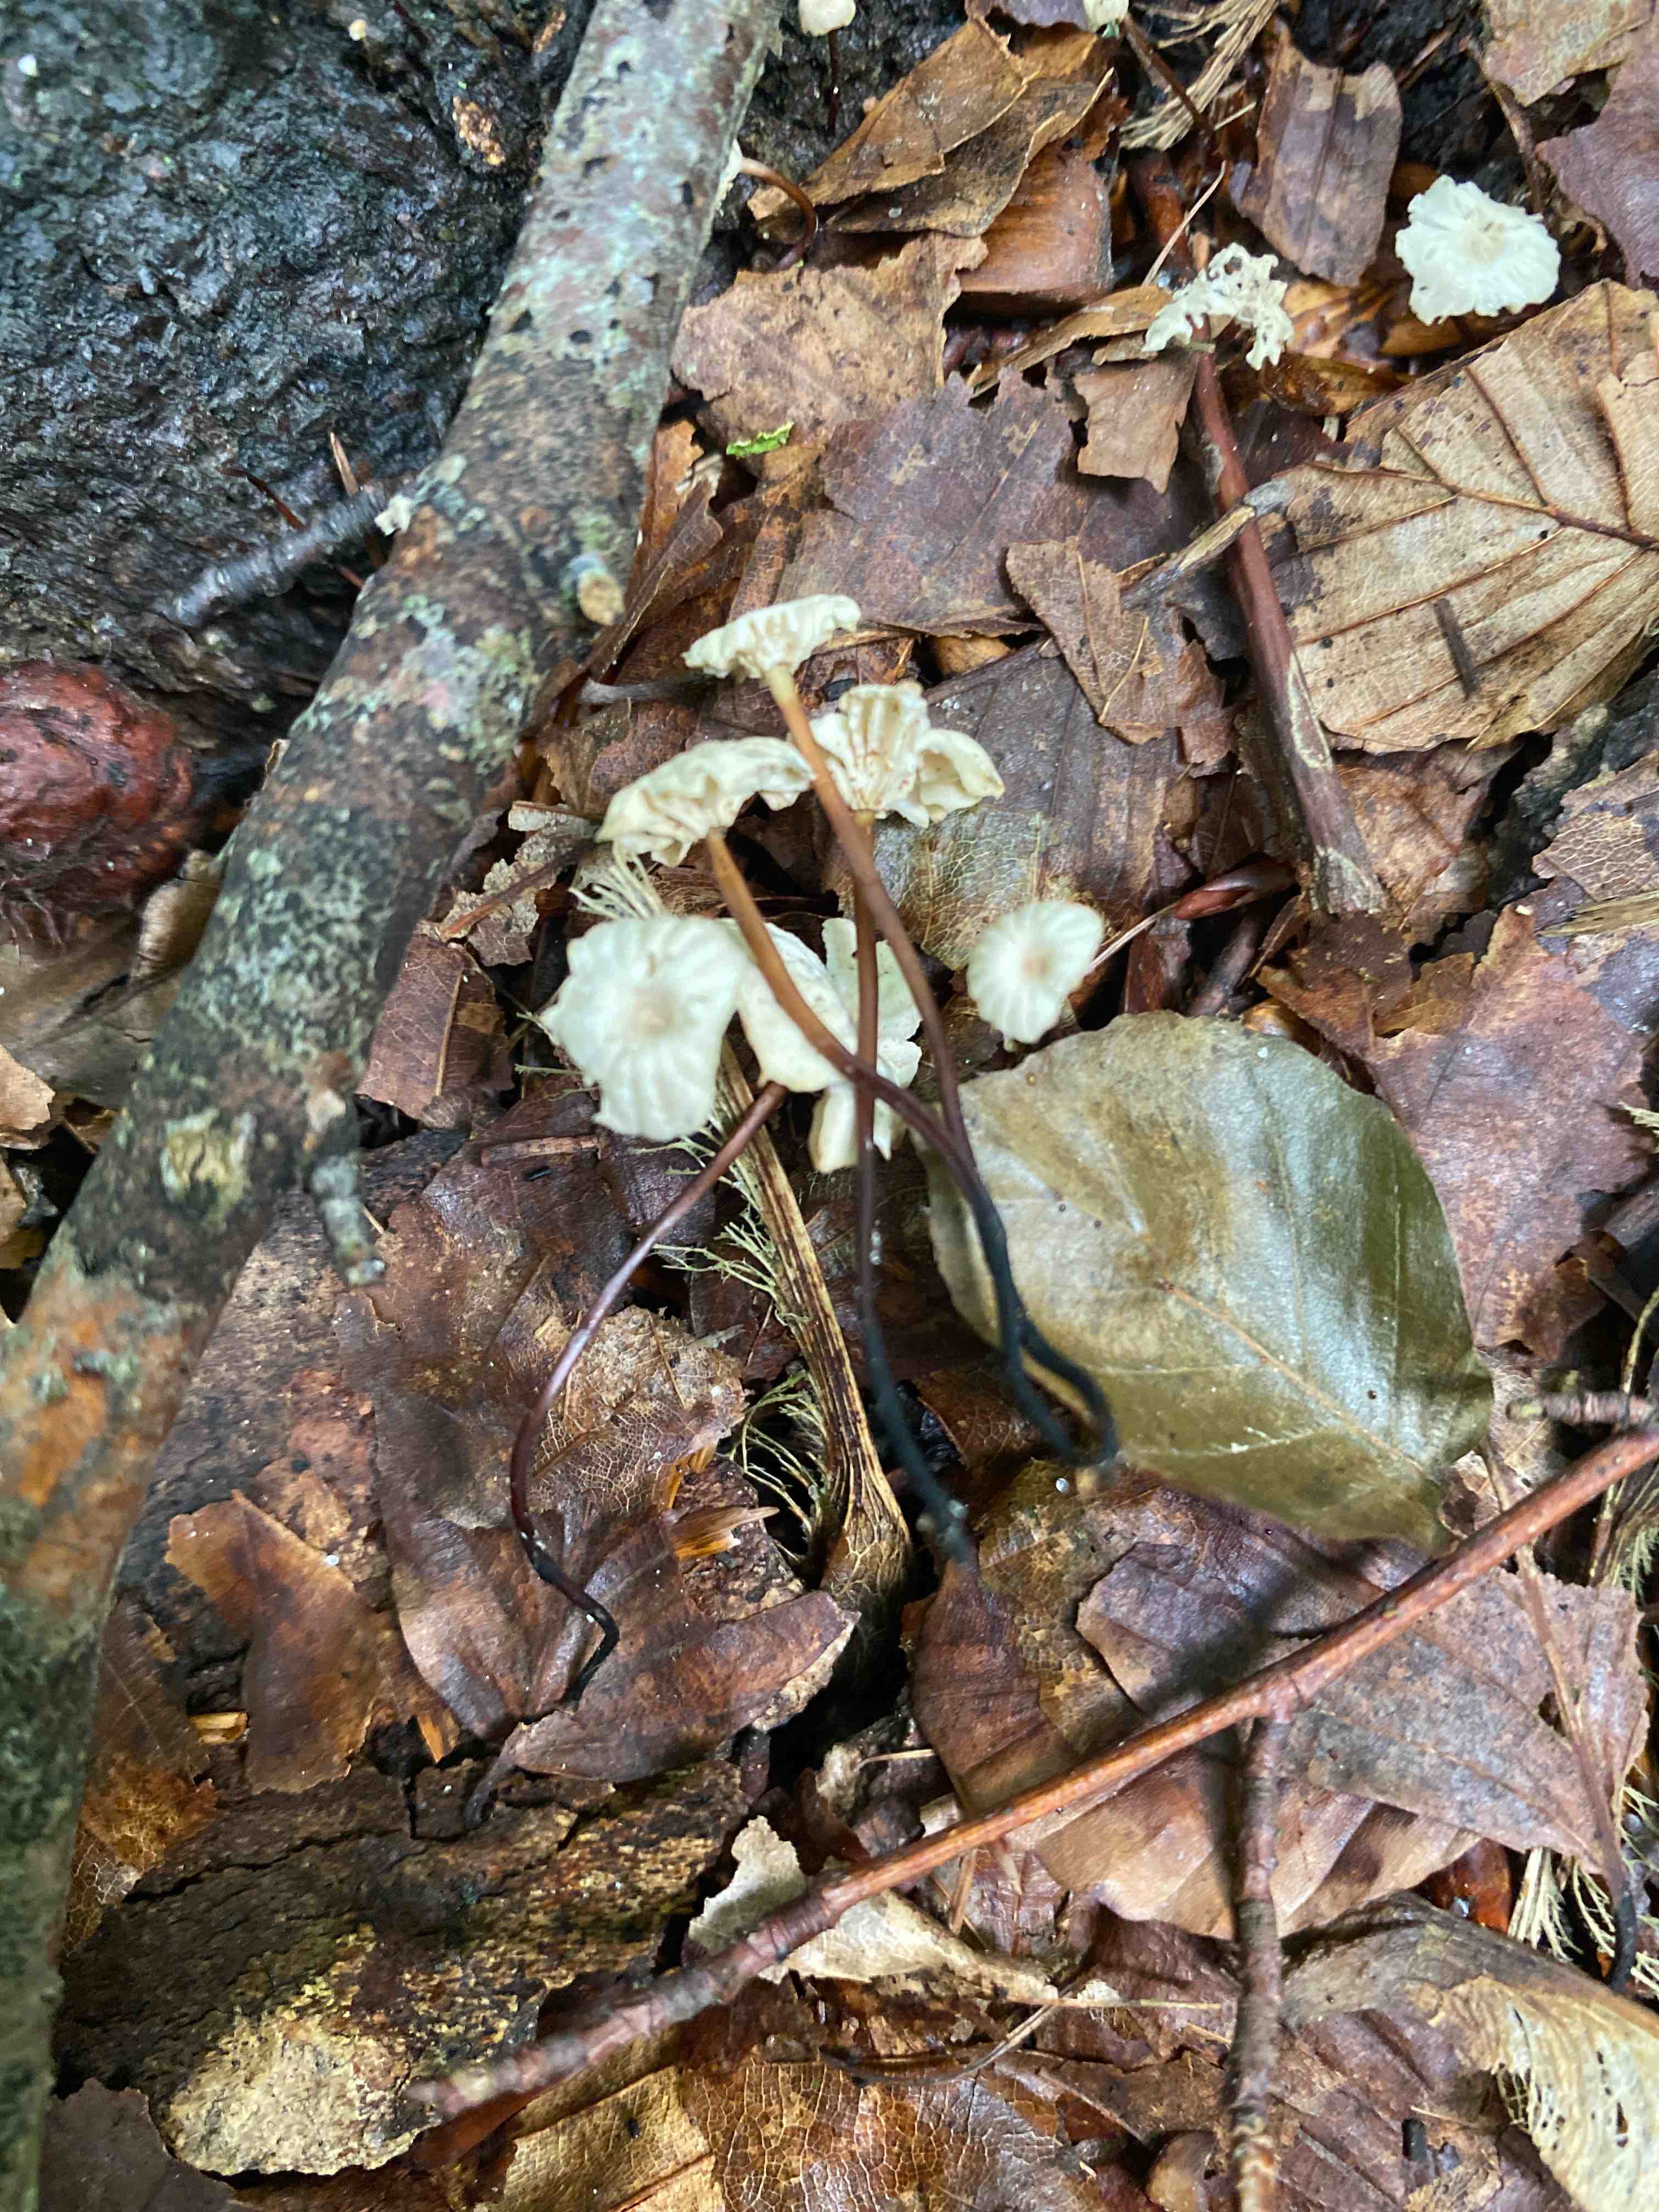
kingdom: Fungi
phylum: Basidiomycota
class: Agaricomycetes
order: Agaricales
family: Marasmiaceae
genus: Marasmius
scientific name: Marasmius rotula
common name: hjul-bruskhat
